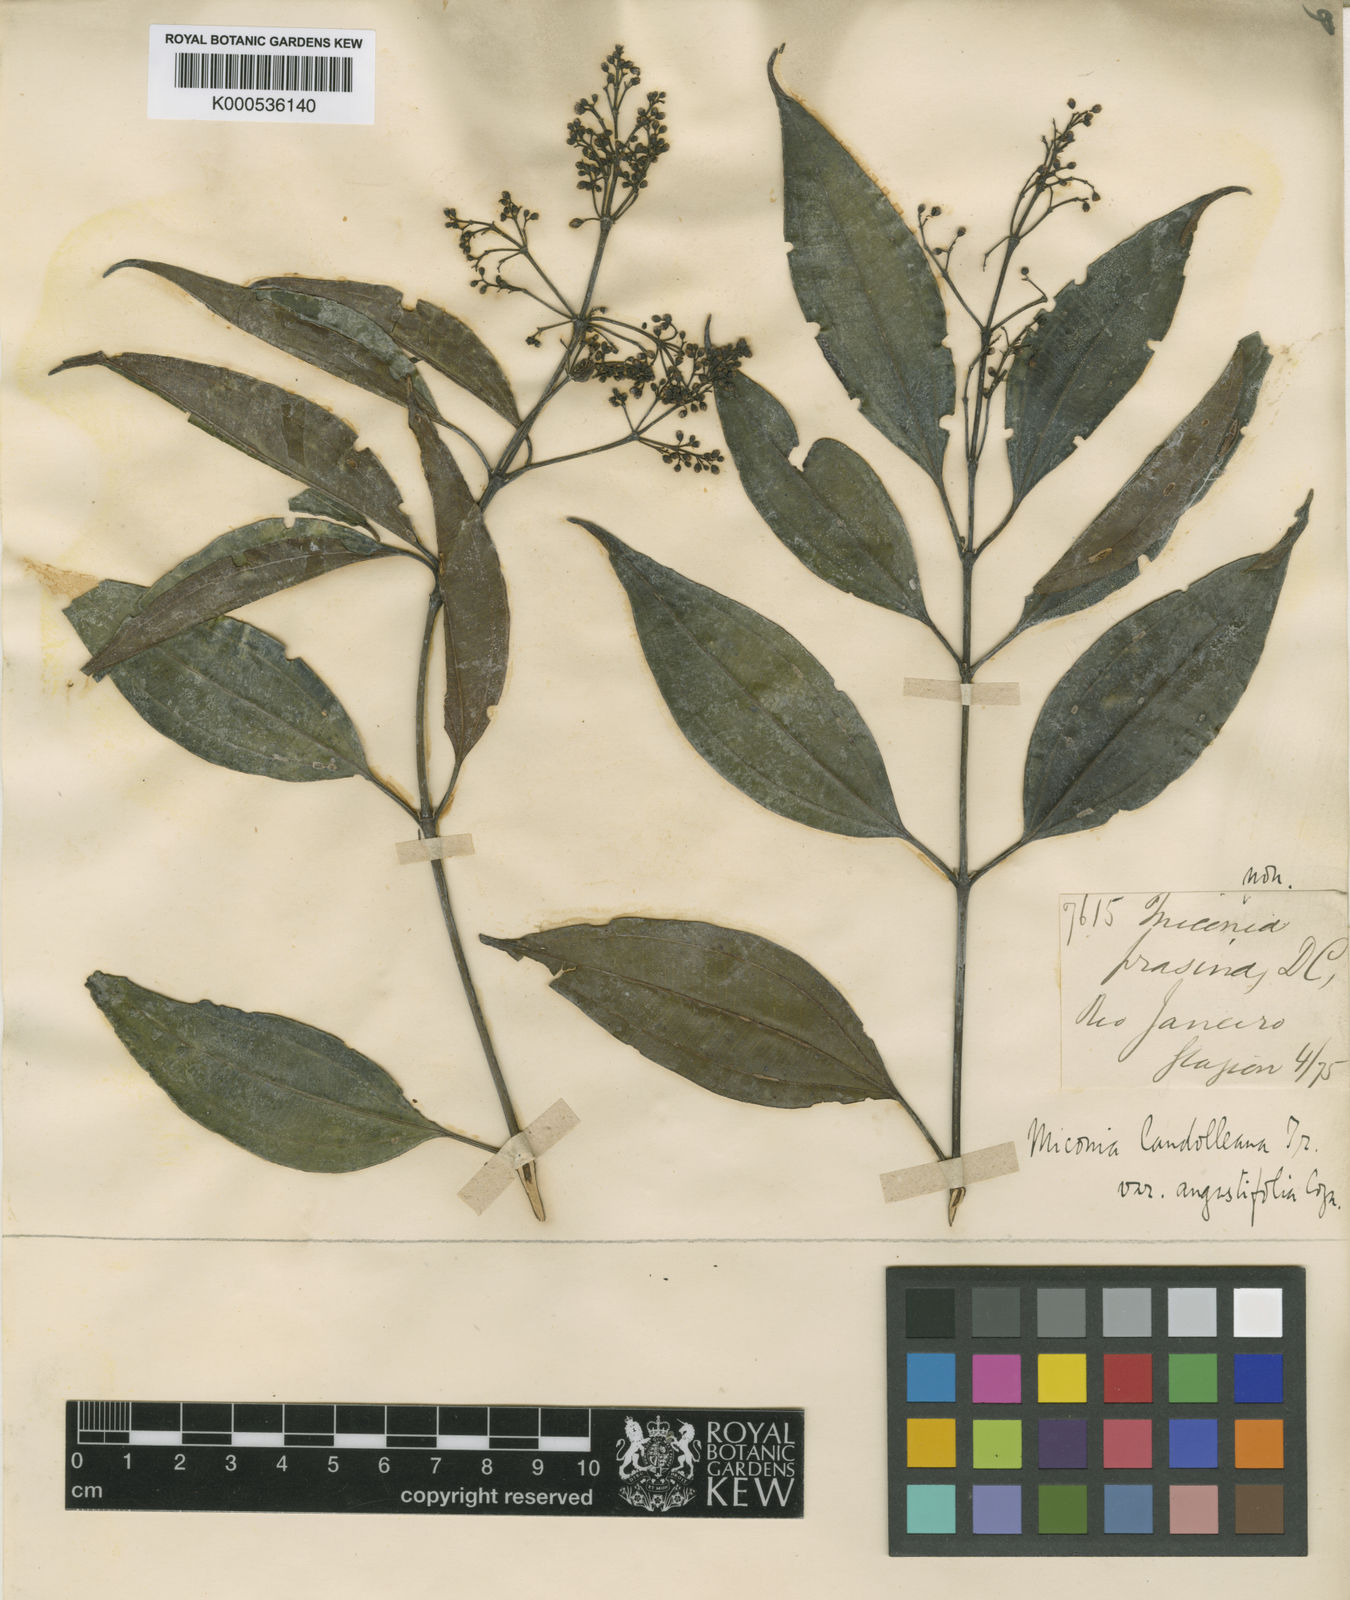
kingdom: Plantae
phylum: Tracheophyta
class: Magnoliopsida
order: Myrtales
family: Melastomataceae
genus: Miconia
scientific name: Miconia cinnamomifolia
